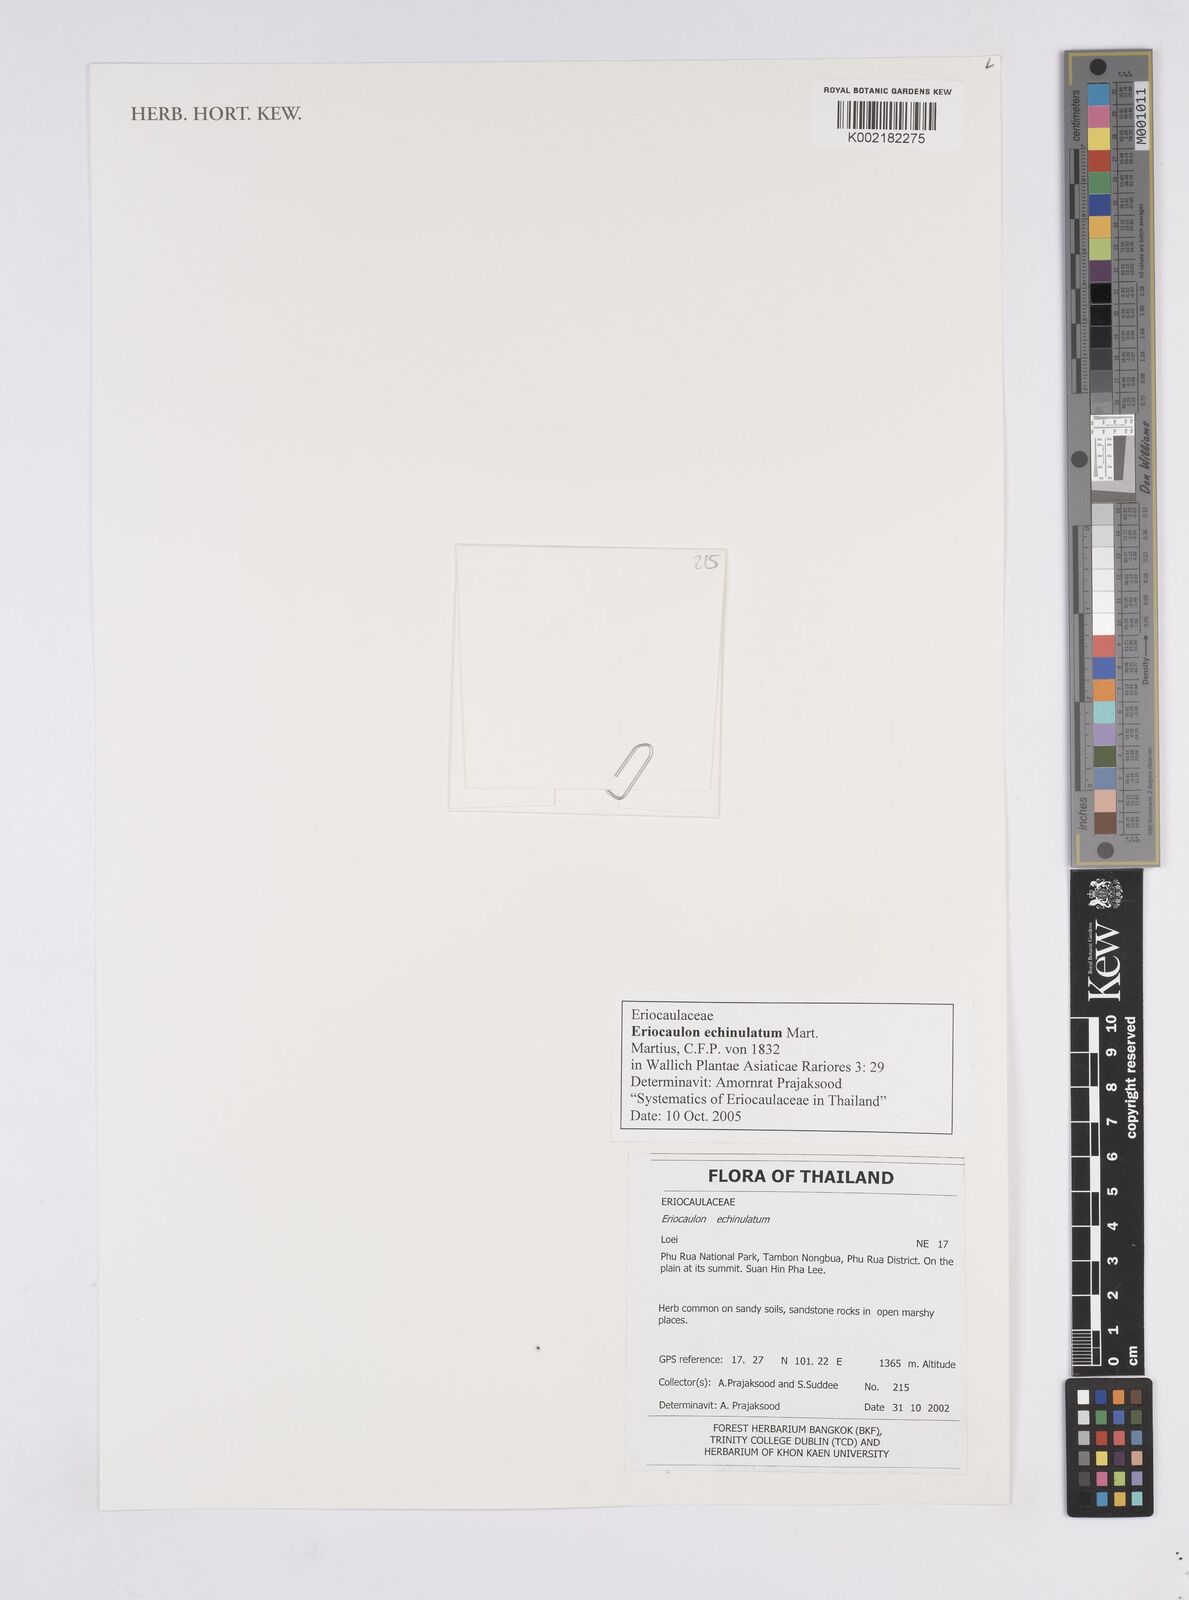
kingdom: Plantae
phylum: Tracheophyta
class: Liliopsida
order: Poales
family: Eriocaulaceae
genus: Eriocaulon
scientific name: Eriocaulon echinulatum
